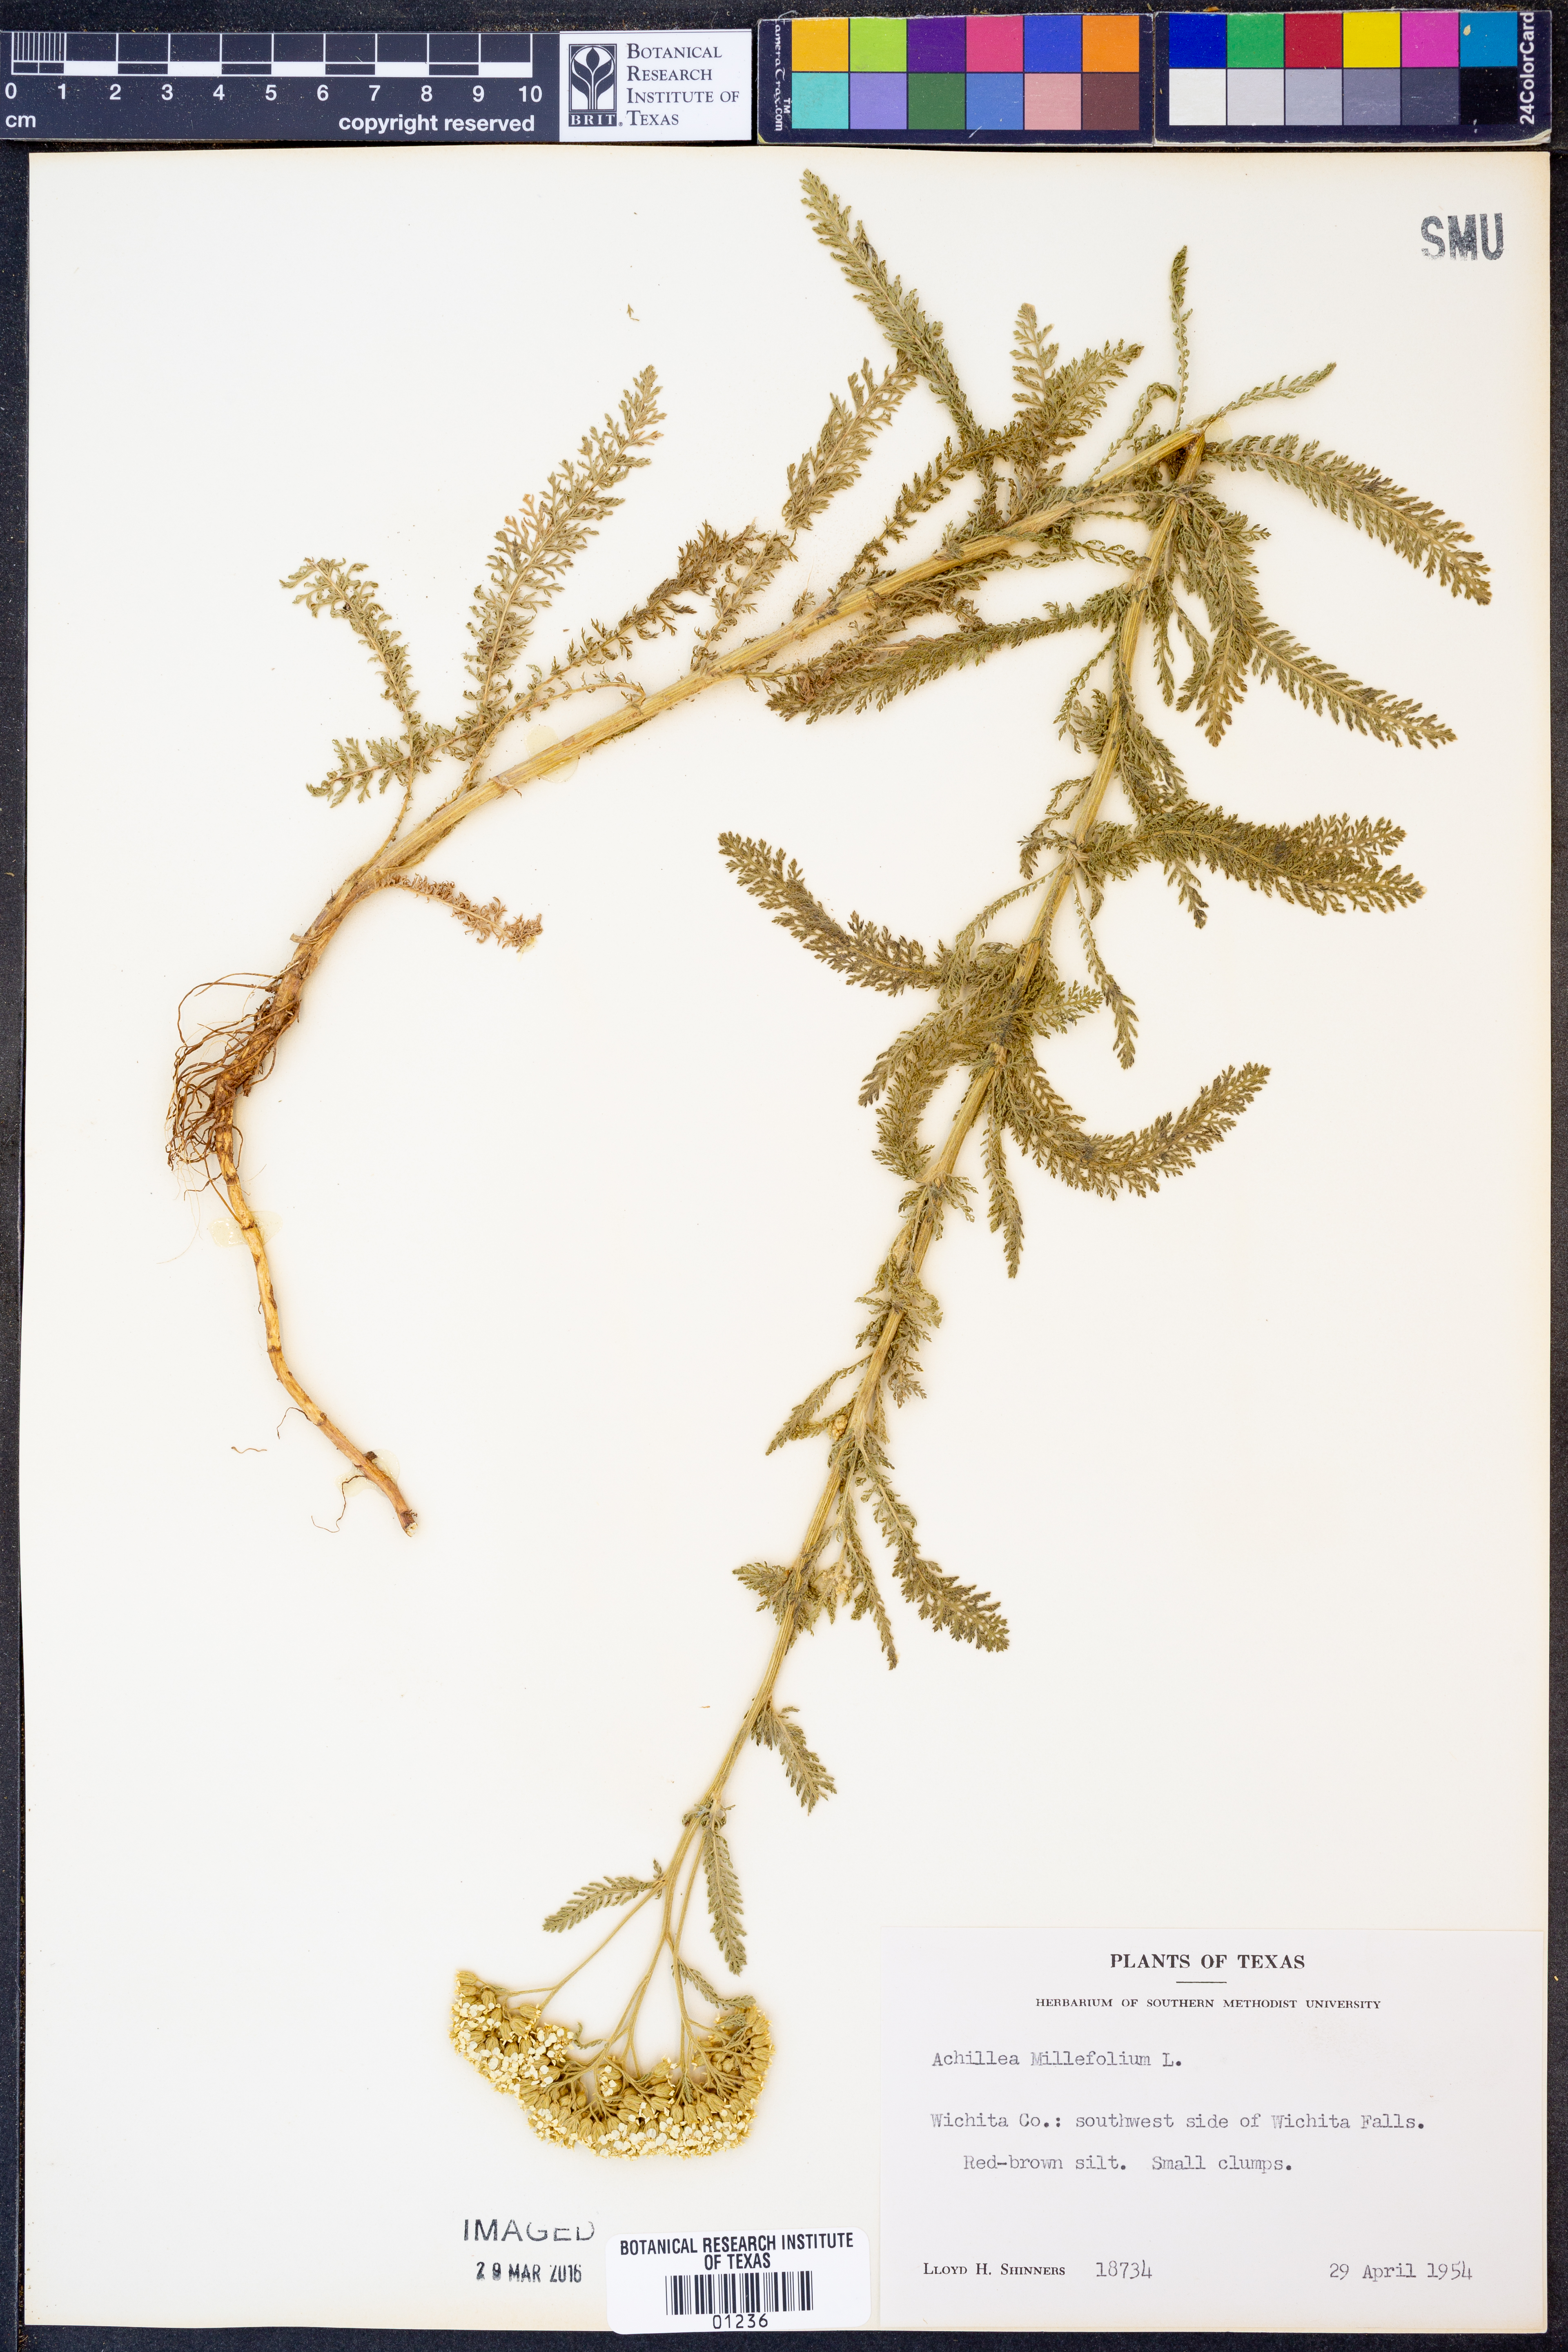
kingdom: Plantae
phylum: Tracheophyta
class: Magnoliopsida
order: Asterales
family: Asteraceae
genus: Achillea
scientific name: Achillea millefolium
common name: Yarrow
